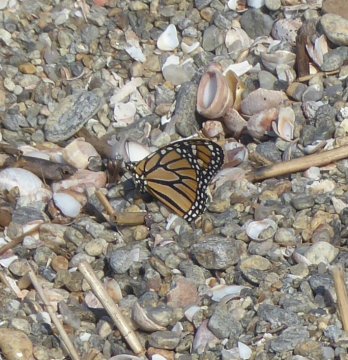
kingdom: Animalia
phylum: Arthropoda
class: Insecta
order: Lepidoptera
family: Nymphalidae
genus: Danaus
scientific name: Danaus plexippus
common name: Monarch
